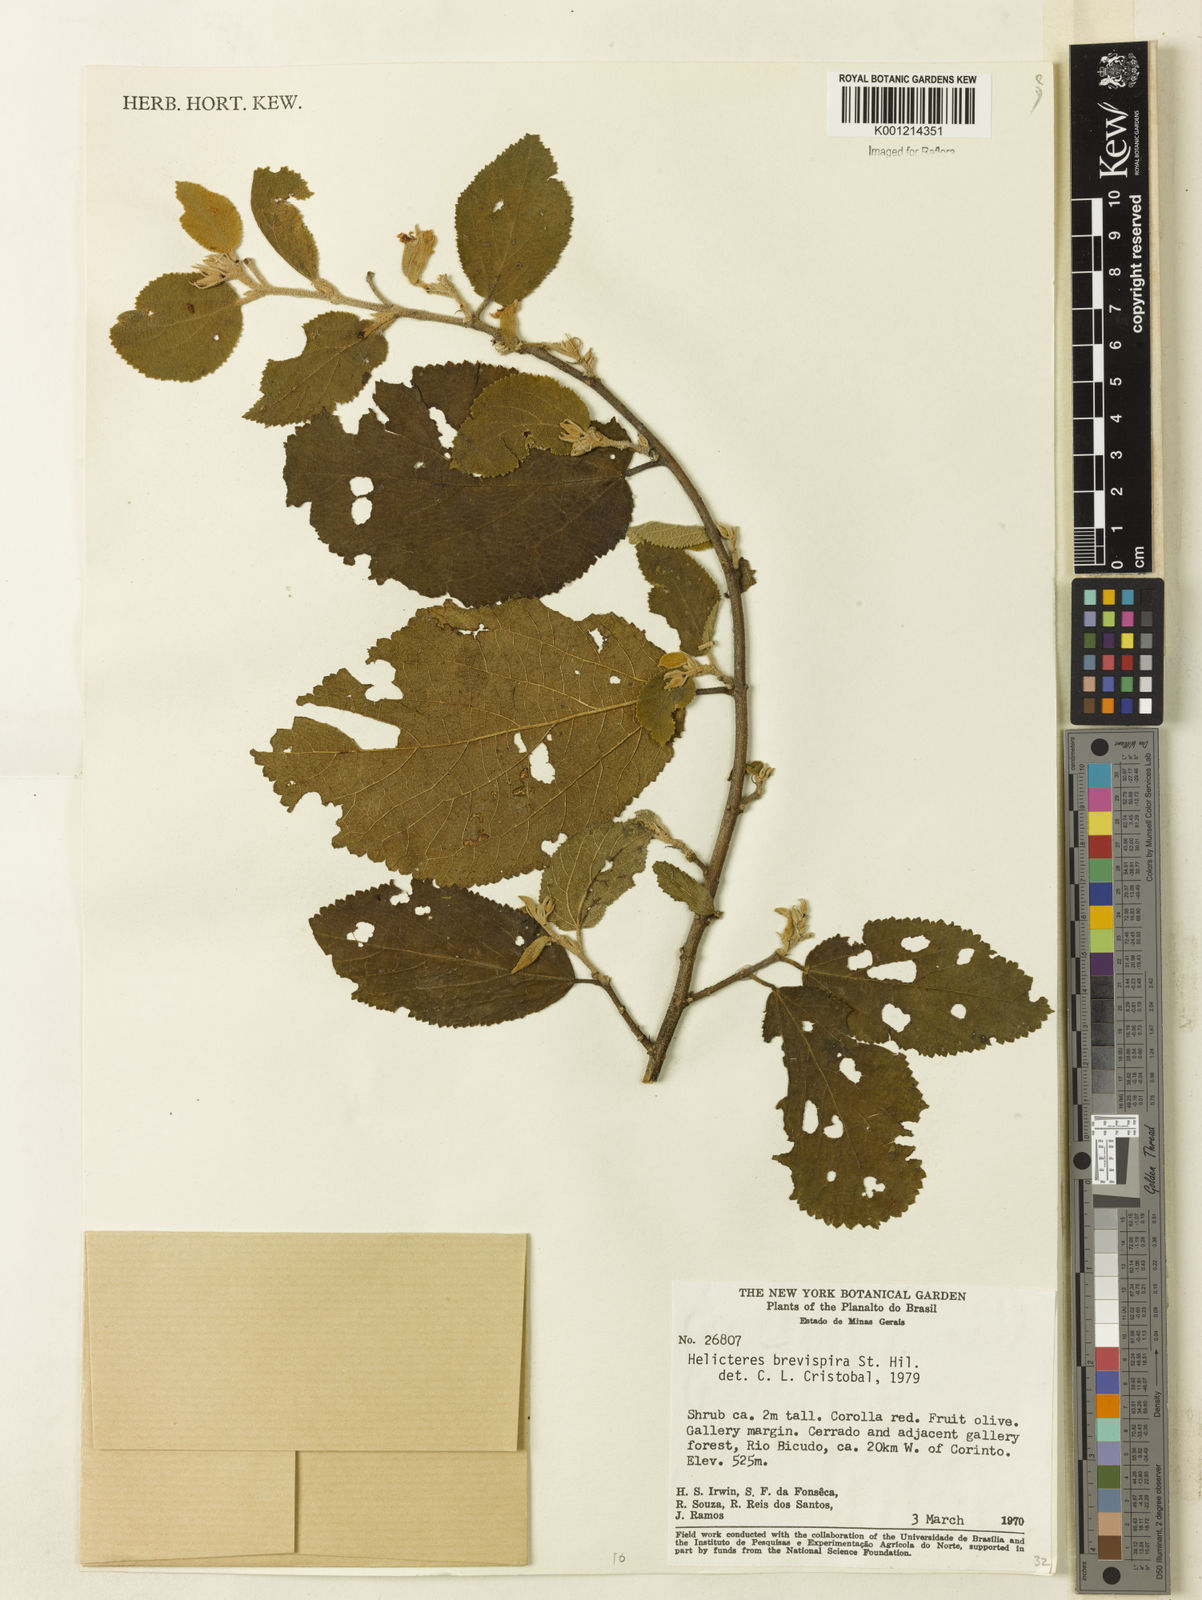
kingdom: Plantae
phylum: Tracheophyta
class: Magnoliopsida
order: Malvales
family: Malvaceae
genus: Helicteres
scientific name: Helicteres
